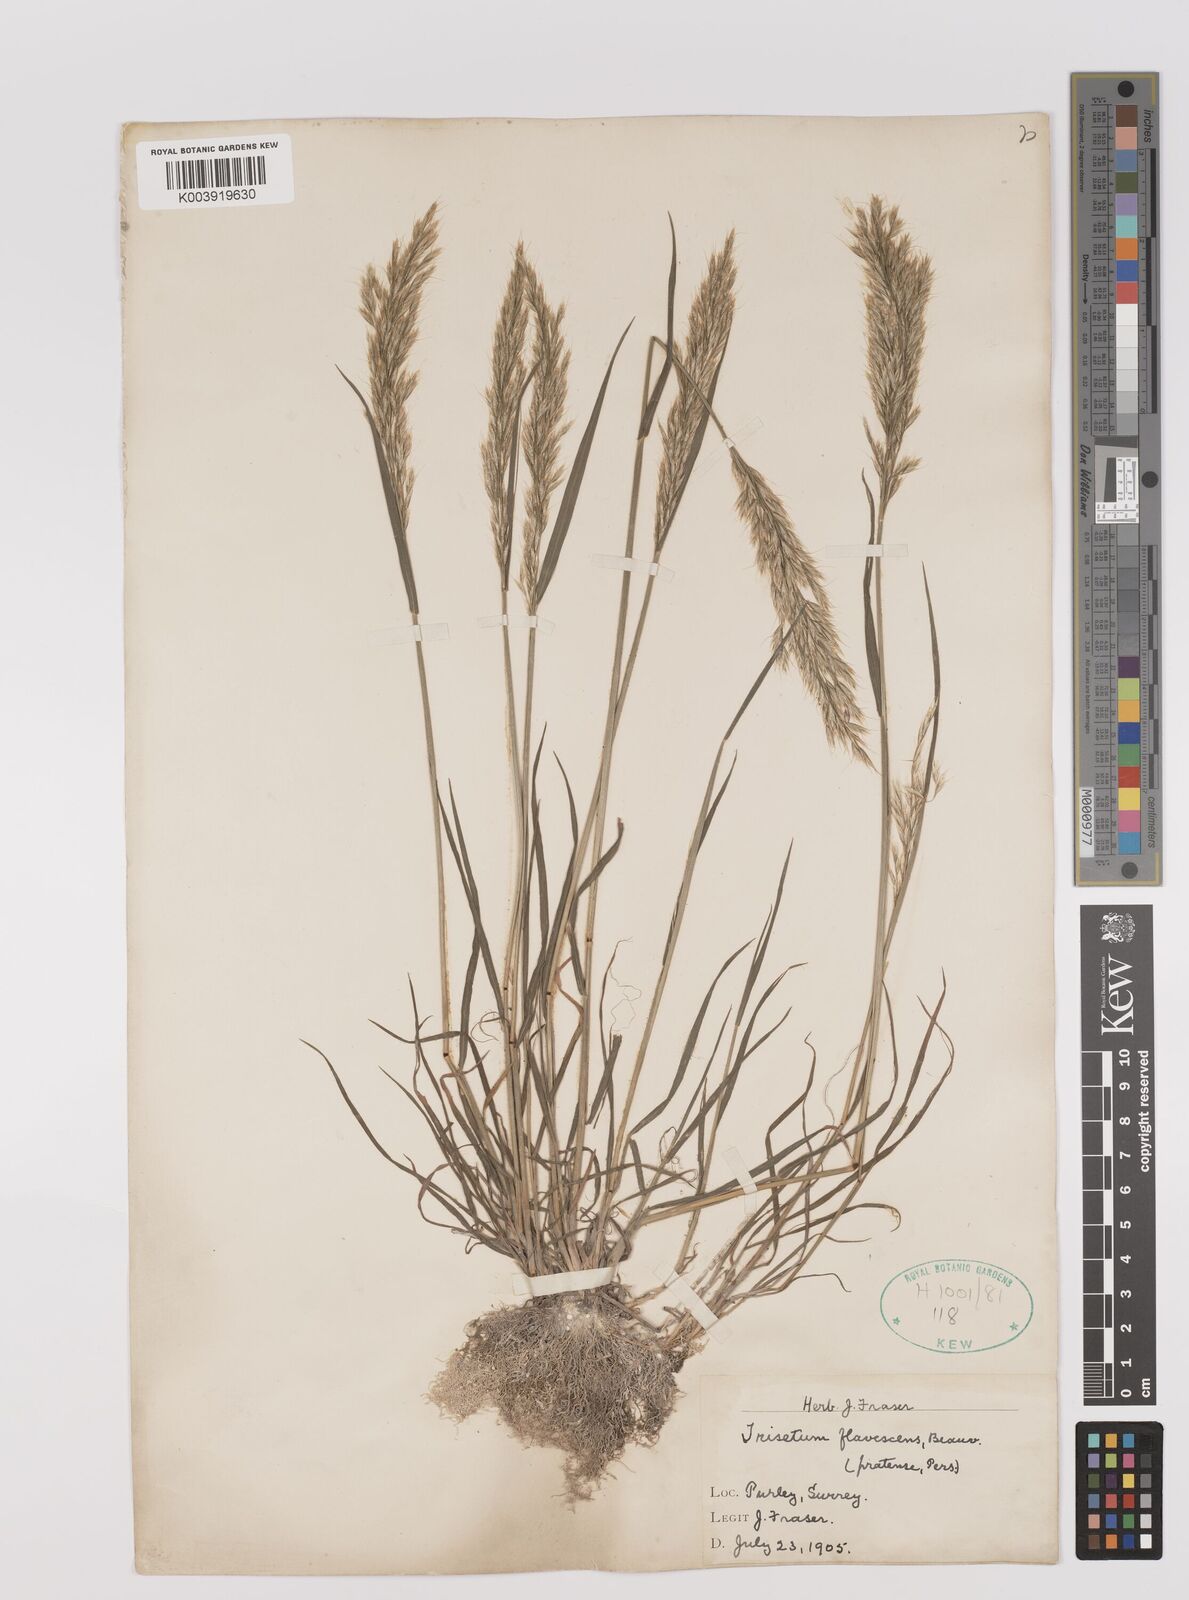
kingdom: Plantae
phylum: Tracheophyta
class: Liliopsida
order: Poales
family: Poaceae
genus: Trisetum
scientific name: Trisetum flavescens
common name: Yellow oat-grass
